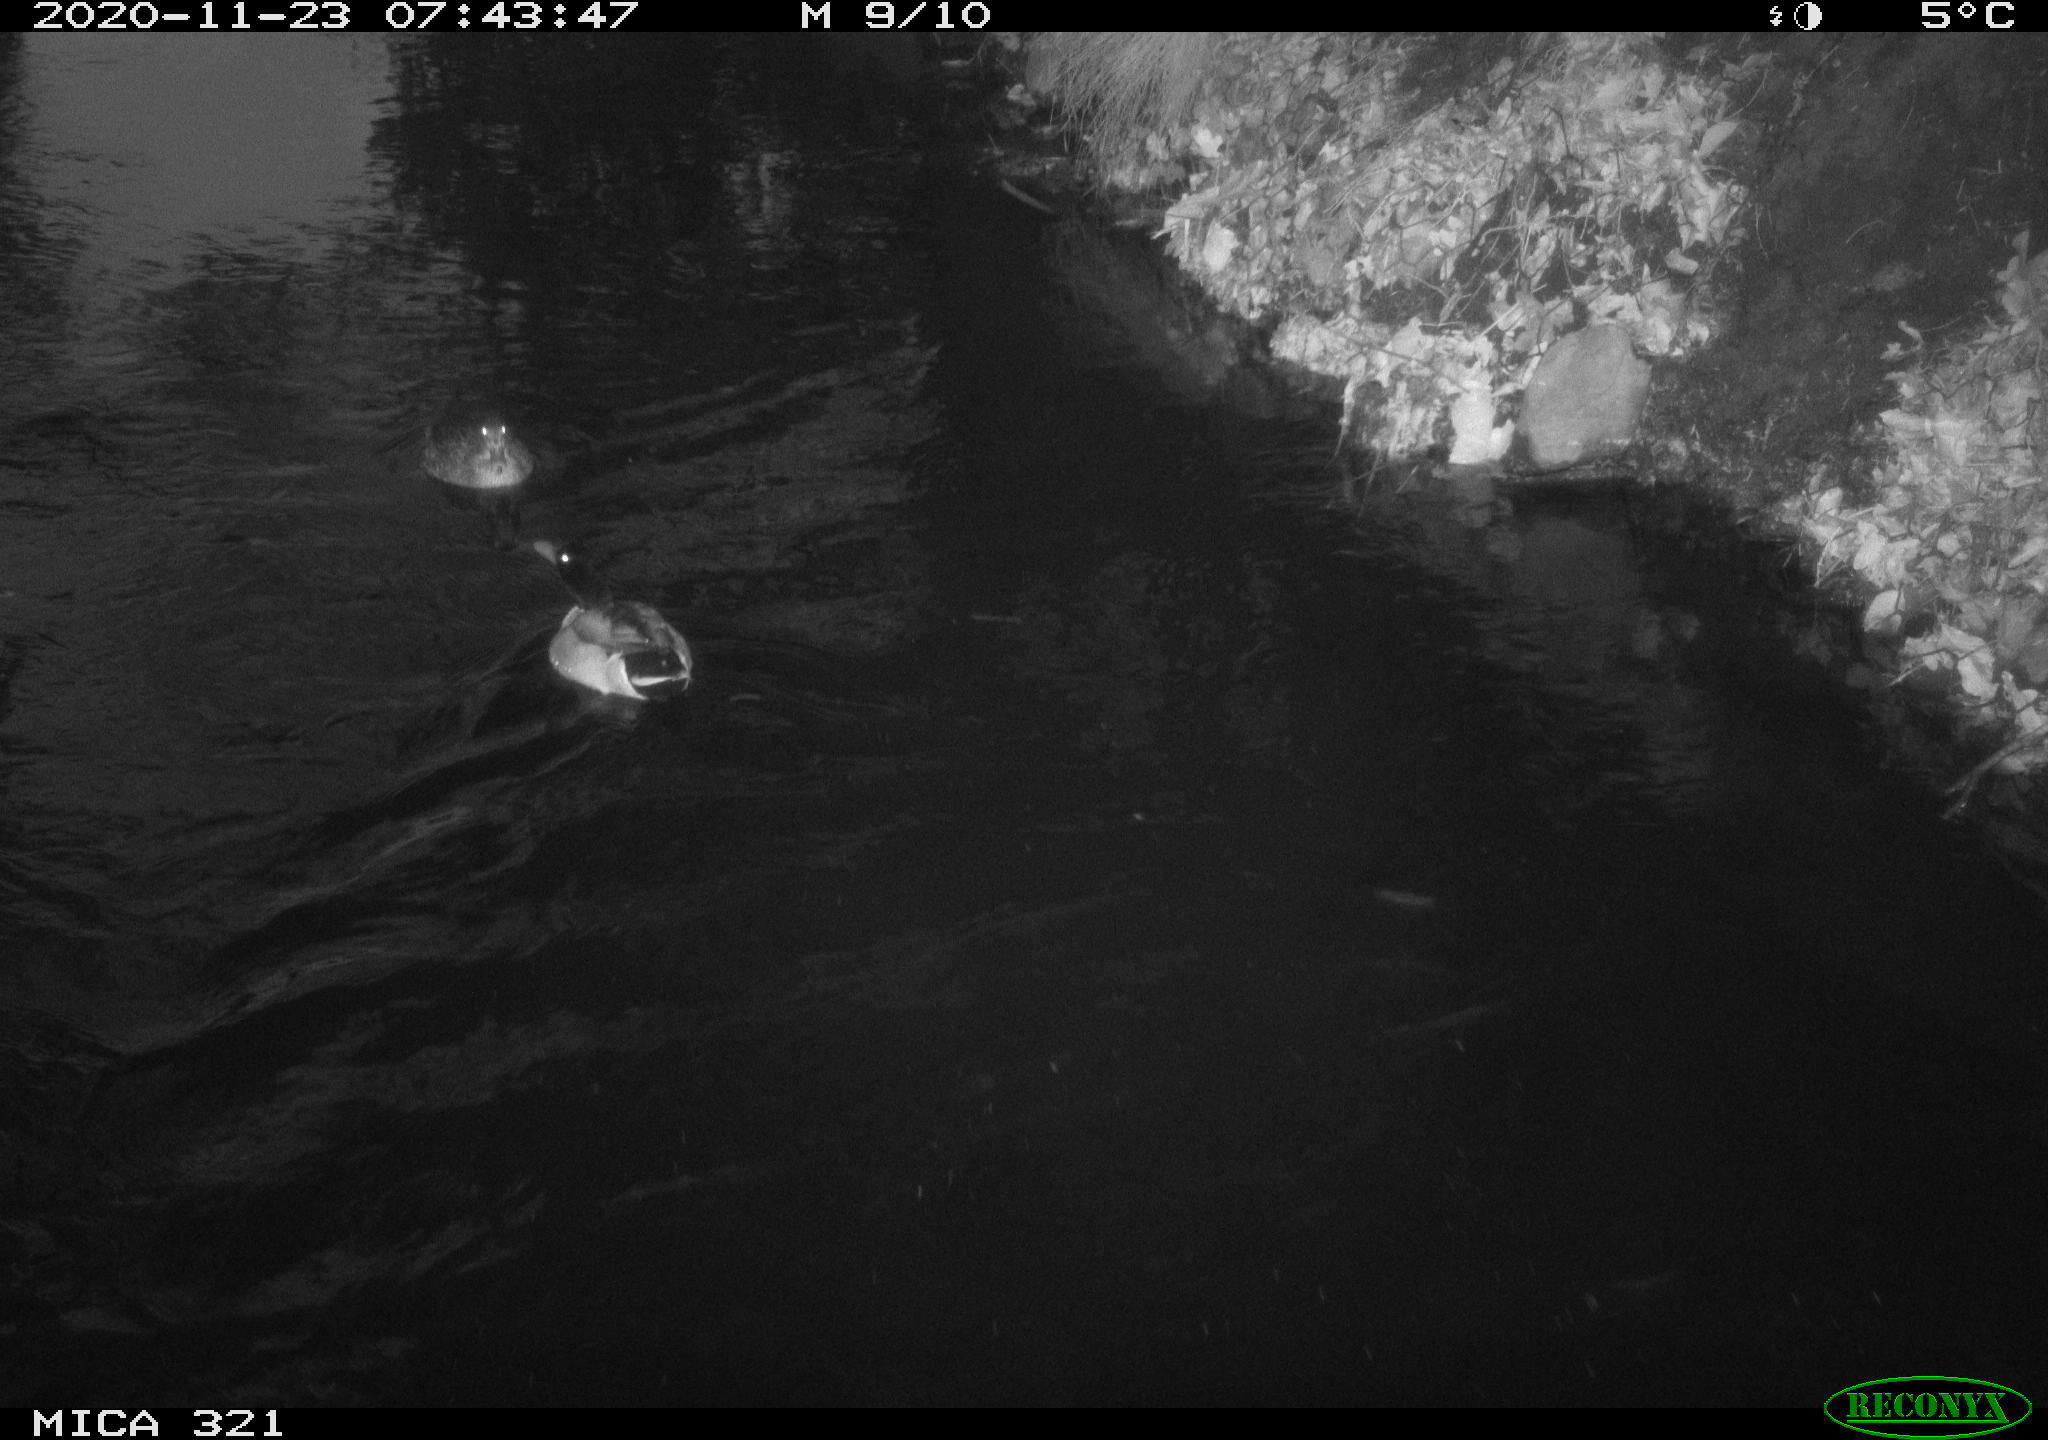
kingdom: Animalia
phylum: Chordata
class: Aves
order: Anseriformes
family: Anatidae
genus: Anas
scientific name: Anas platyrhynchos
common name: Mallard
